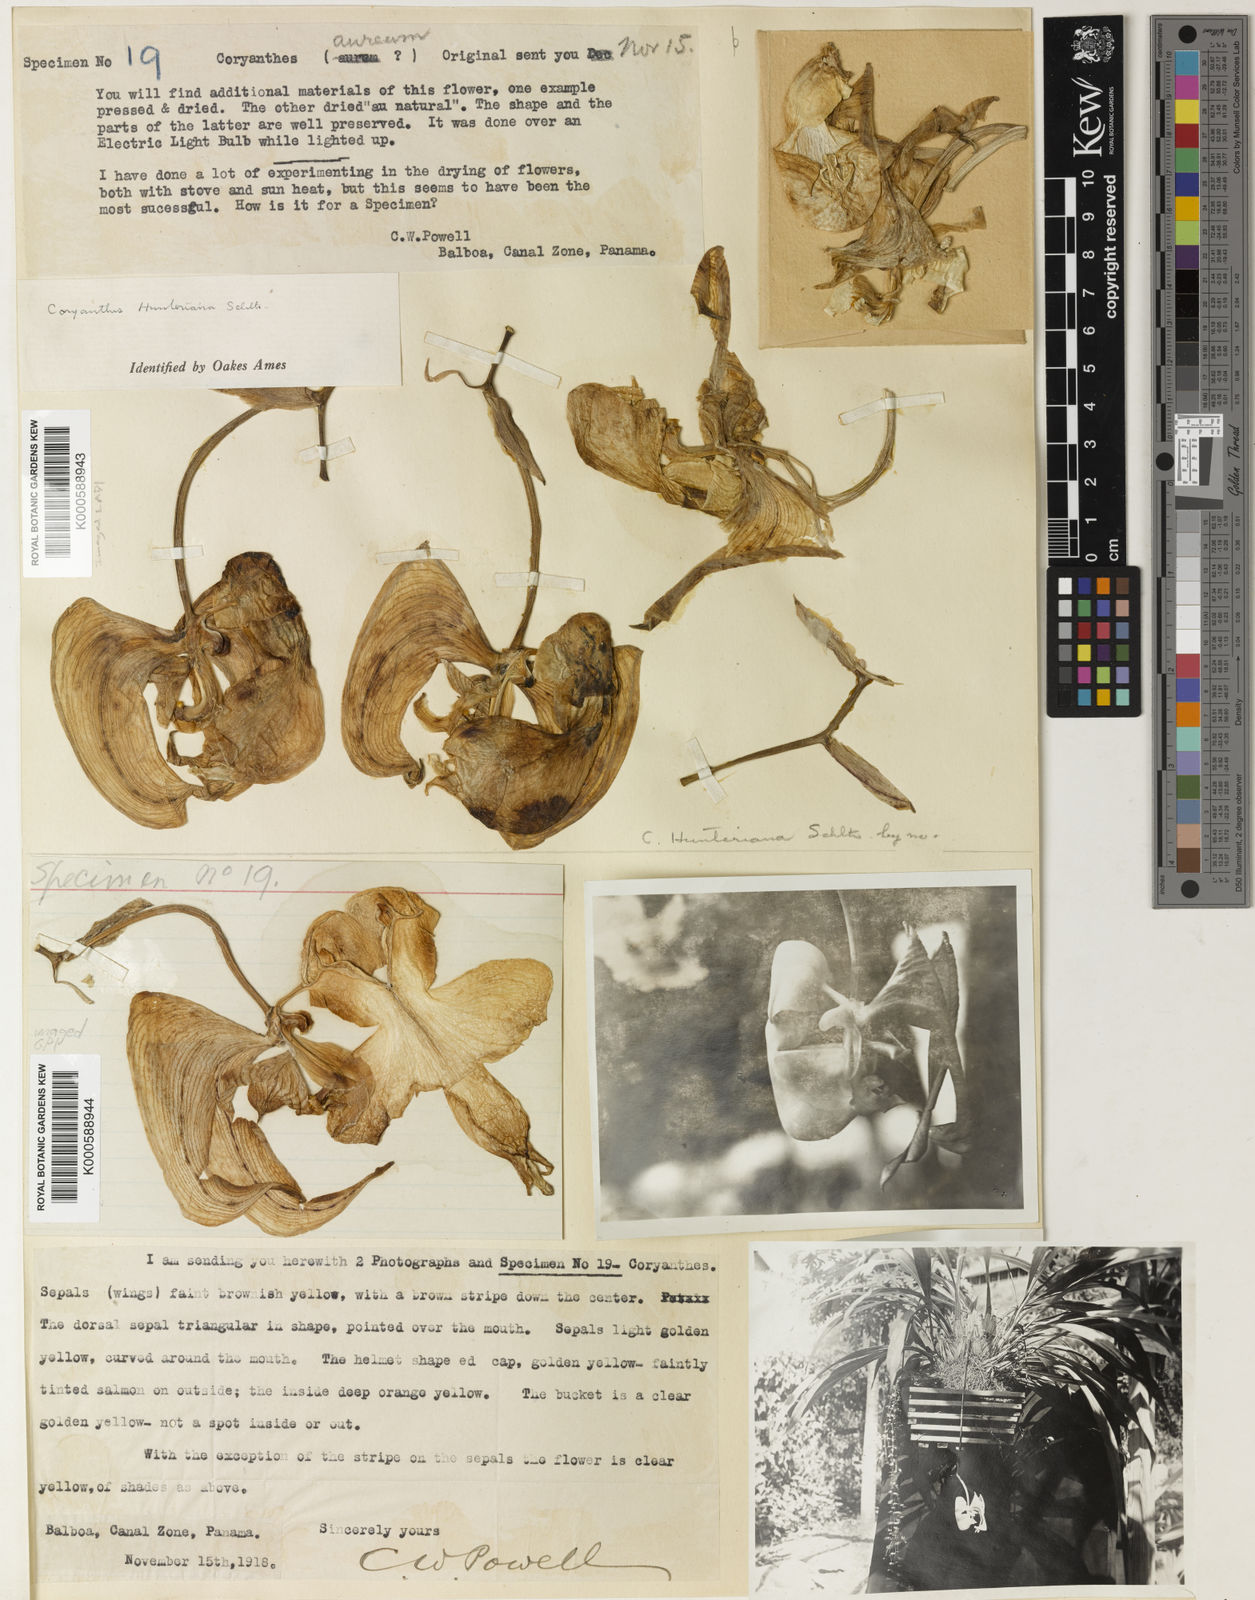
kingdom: Plantae
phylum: Tracheophyta
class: Liliopsida
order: Asparagales
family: Orchidaceae
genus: Coryanthes
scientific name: Coryanthes hunteriana
